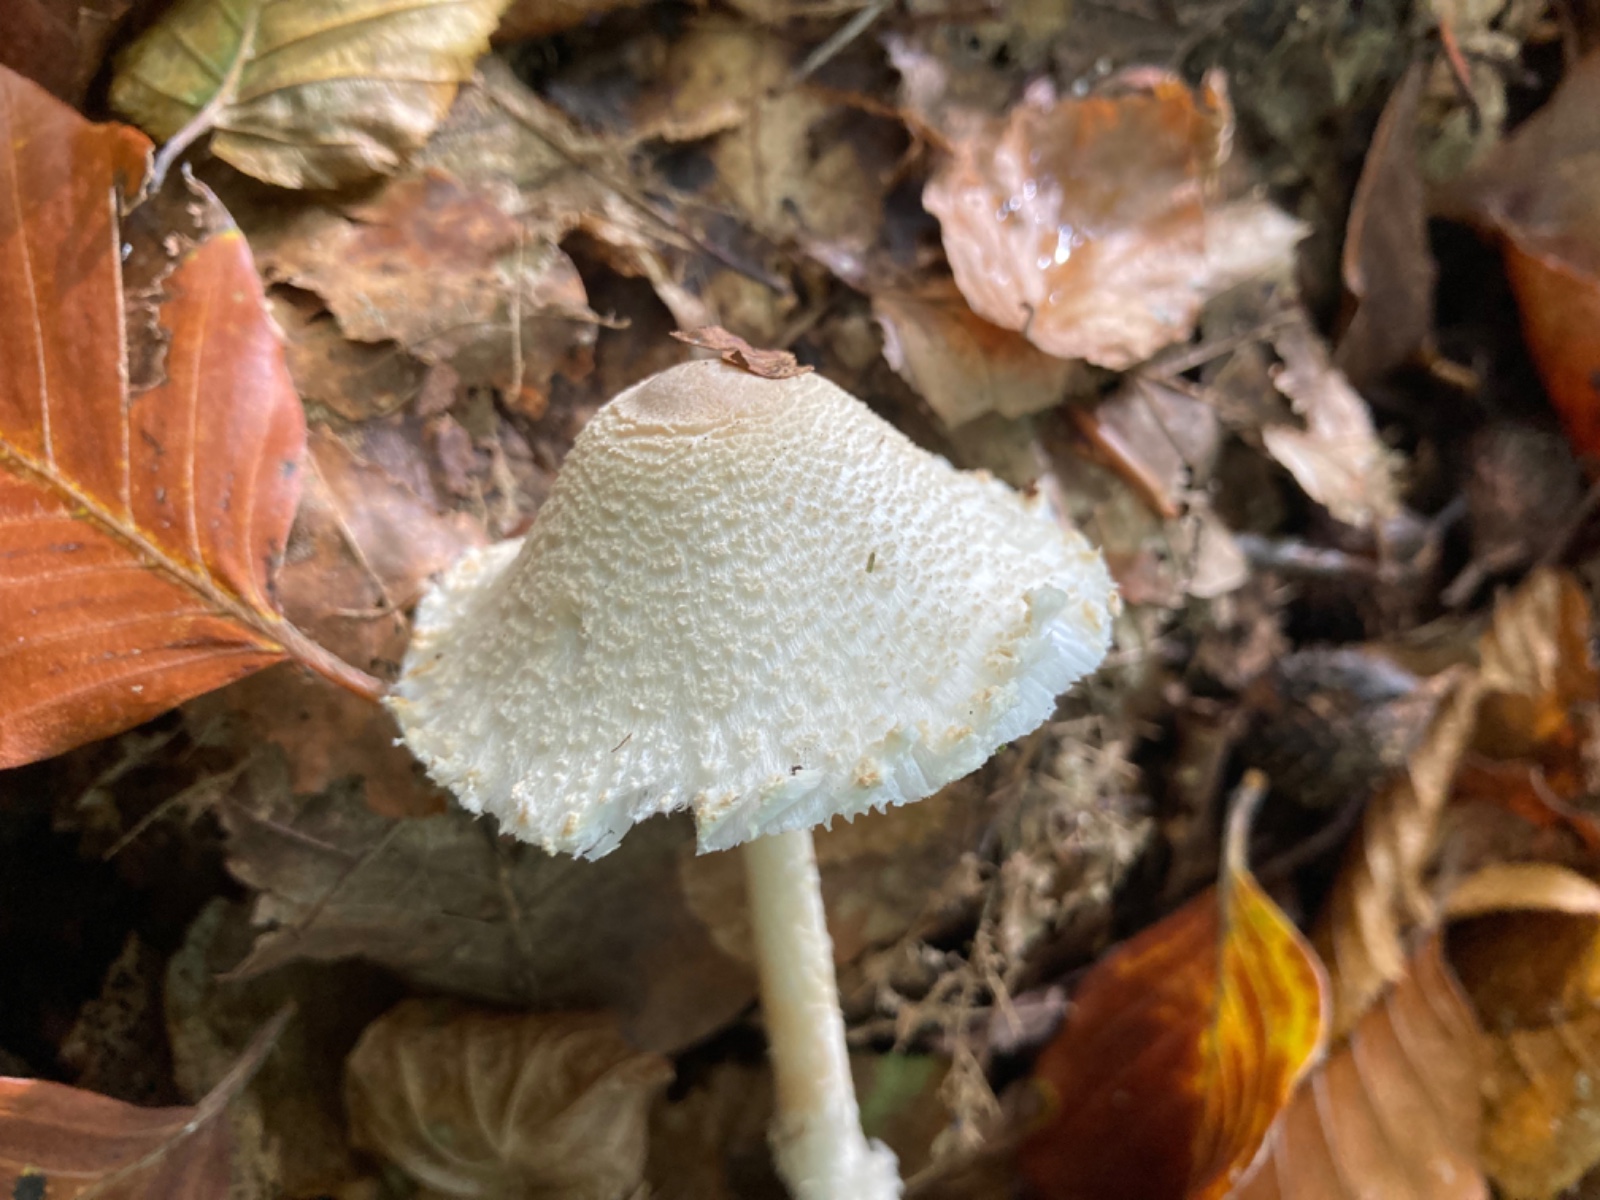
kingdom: Fungi
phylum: Basidiomycota
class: Agaricomycetes
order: Agaricales
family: Agaricaceae
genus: Lepiota
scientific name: Lepiota magnispora
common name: gulfnugget parasolhat
